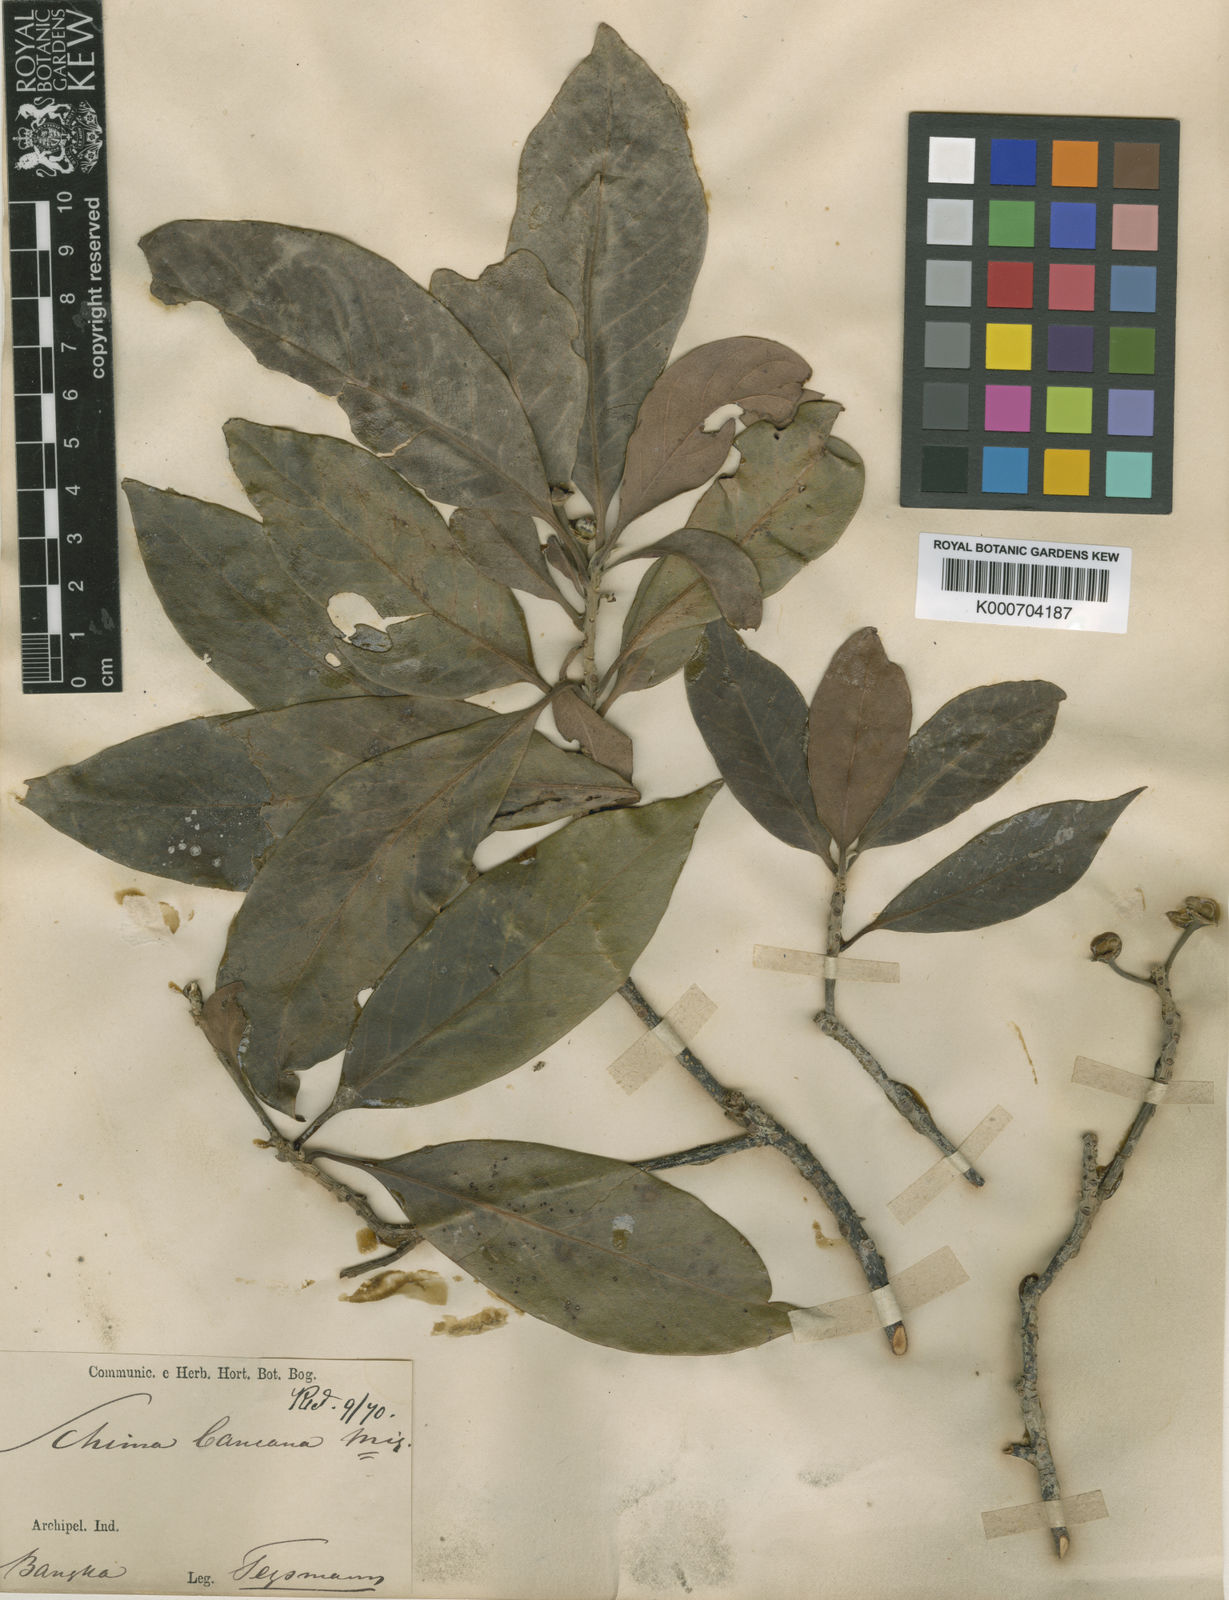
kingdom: Plantae
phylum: Tracheophyta
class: Magnoliopsida
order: Ericales
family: Theaceae
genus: Schima
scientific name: Schima wallichii
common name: Schima
